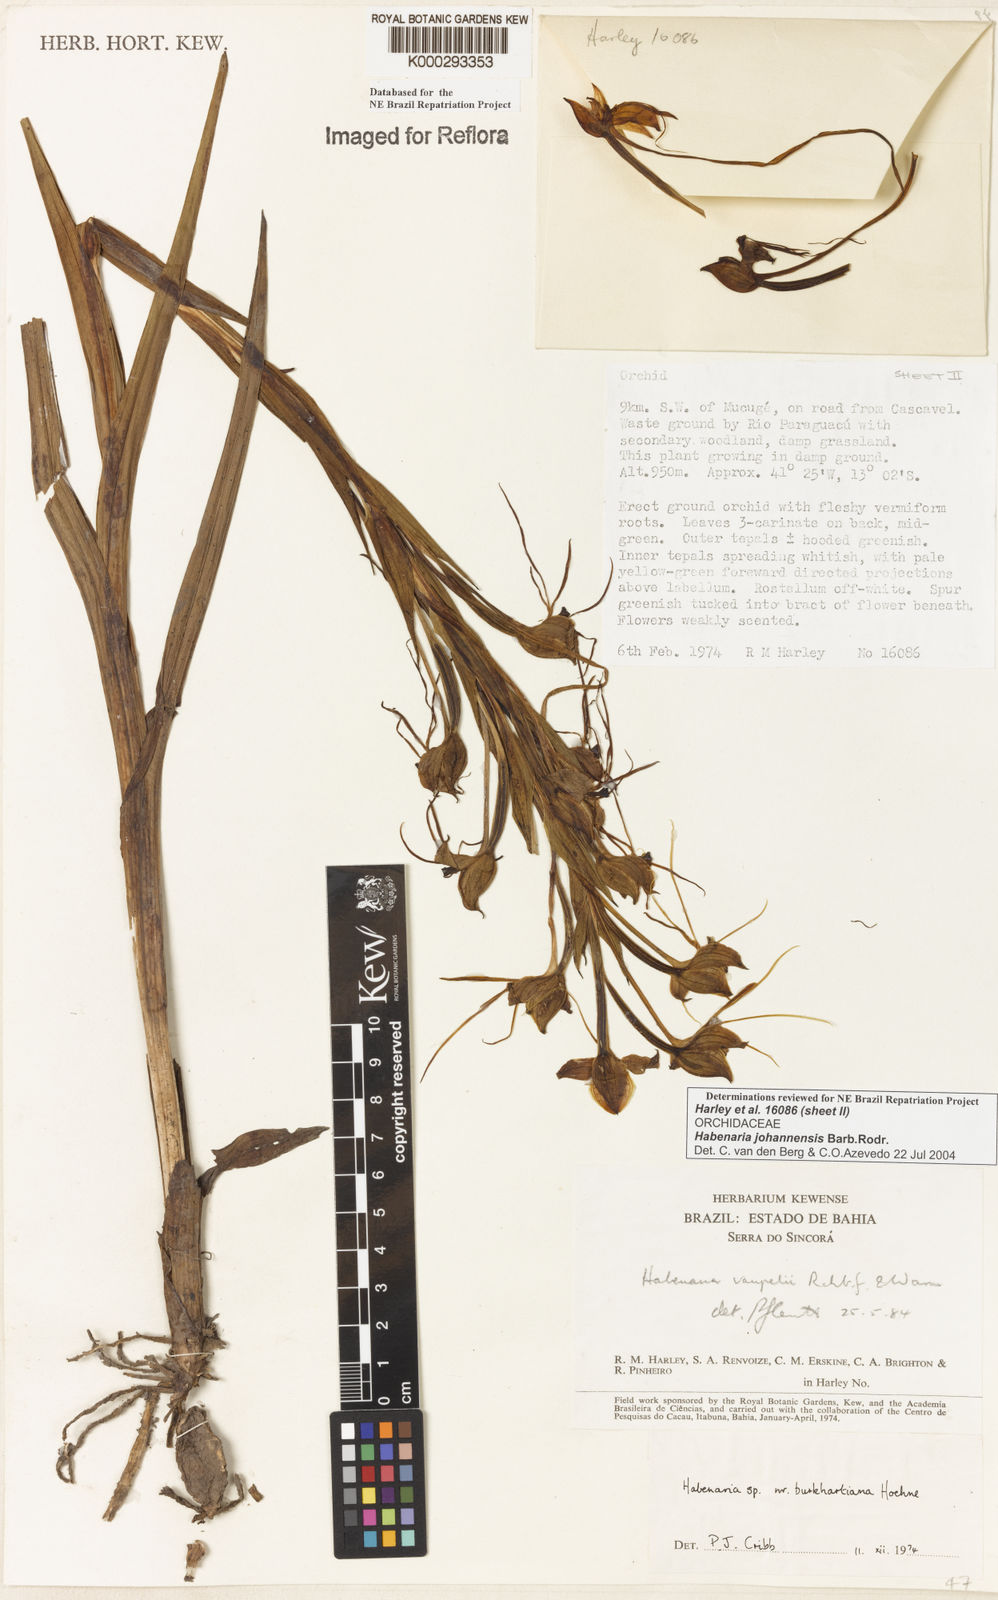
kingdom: Plantae
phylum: Tracheophyta
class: Liliopsida
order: Asparagales
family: Orchidaceae
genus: Habenaria
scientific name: Habenaria johannensis
